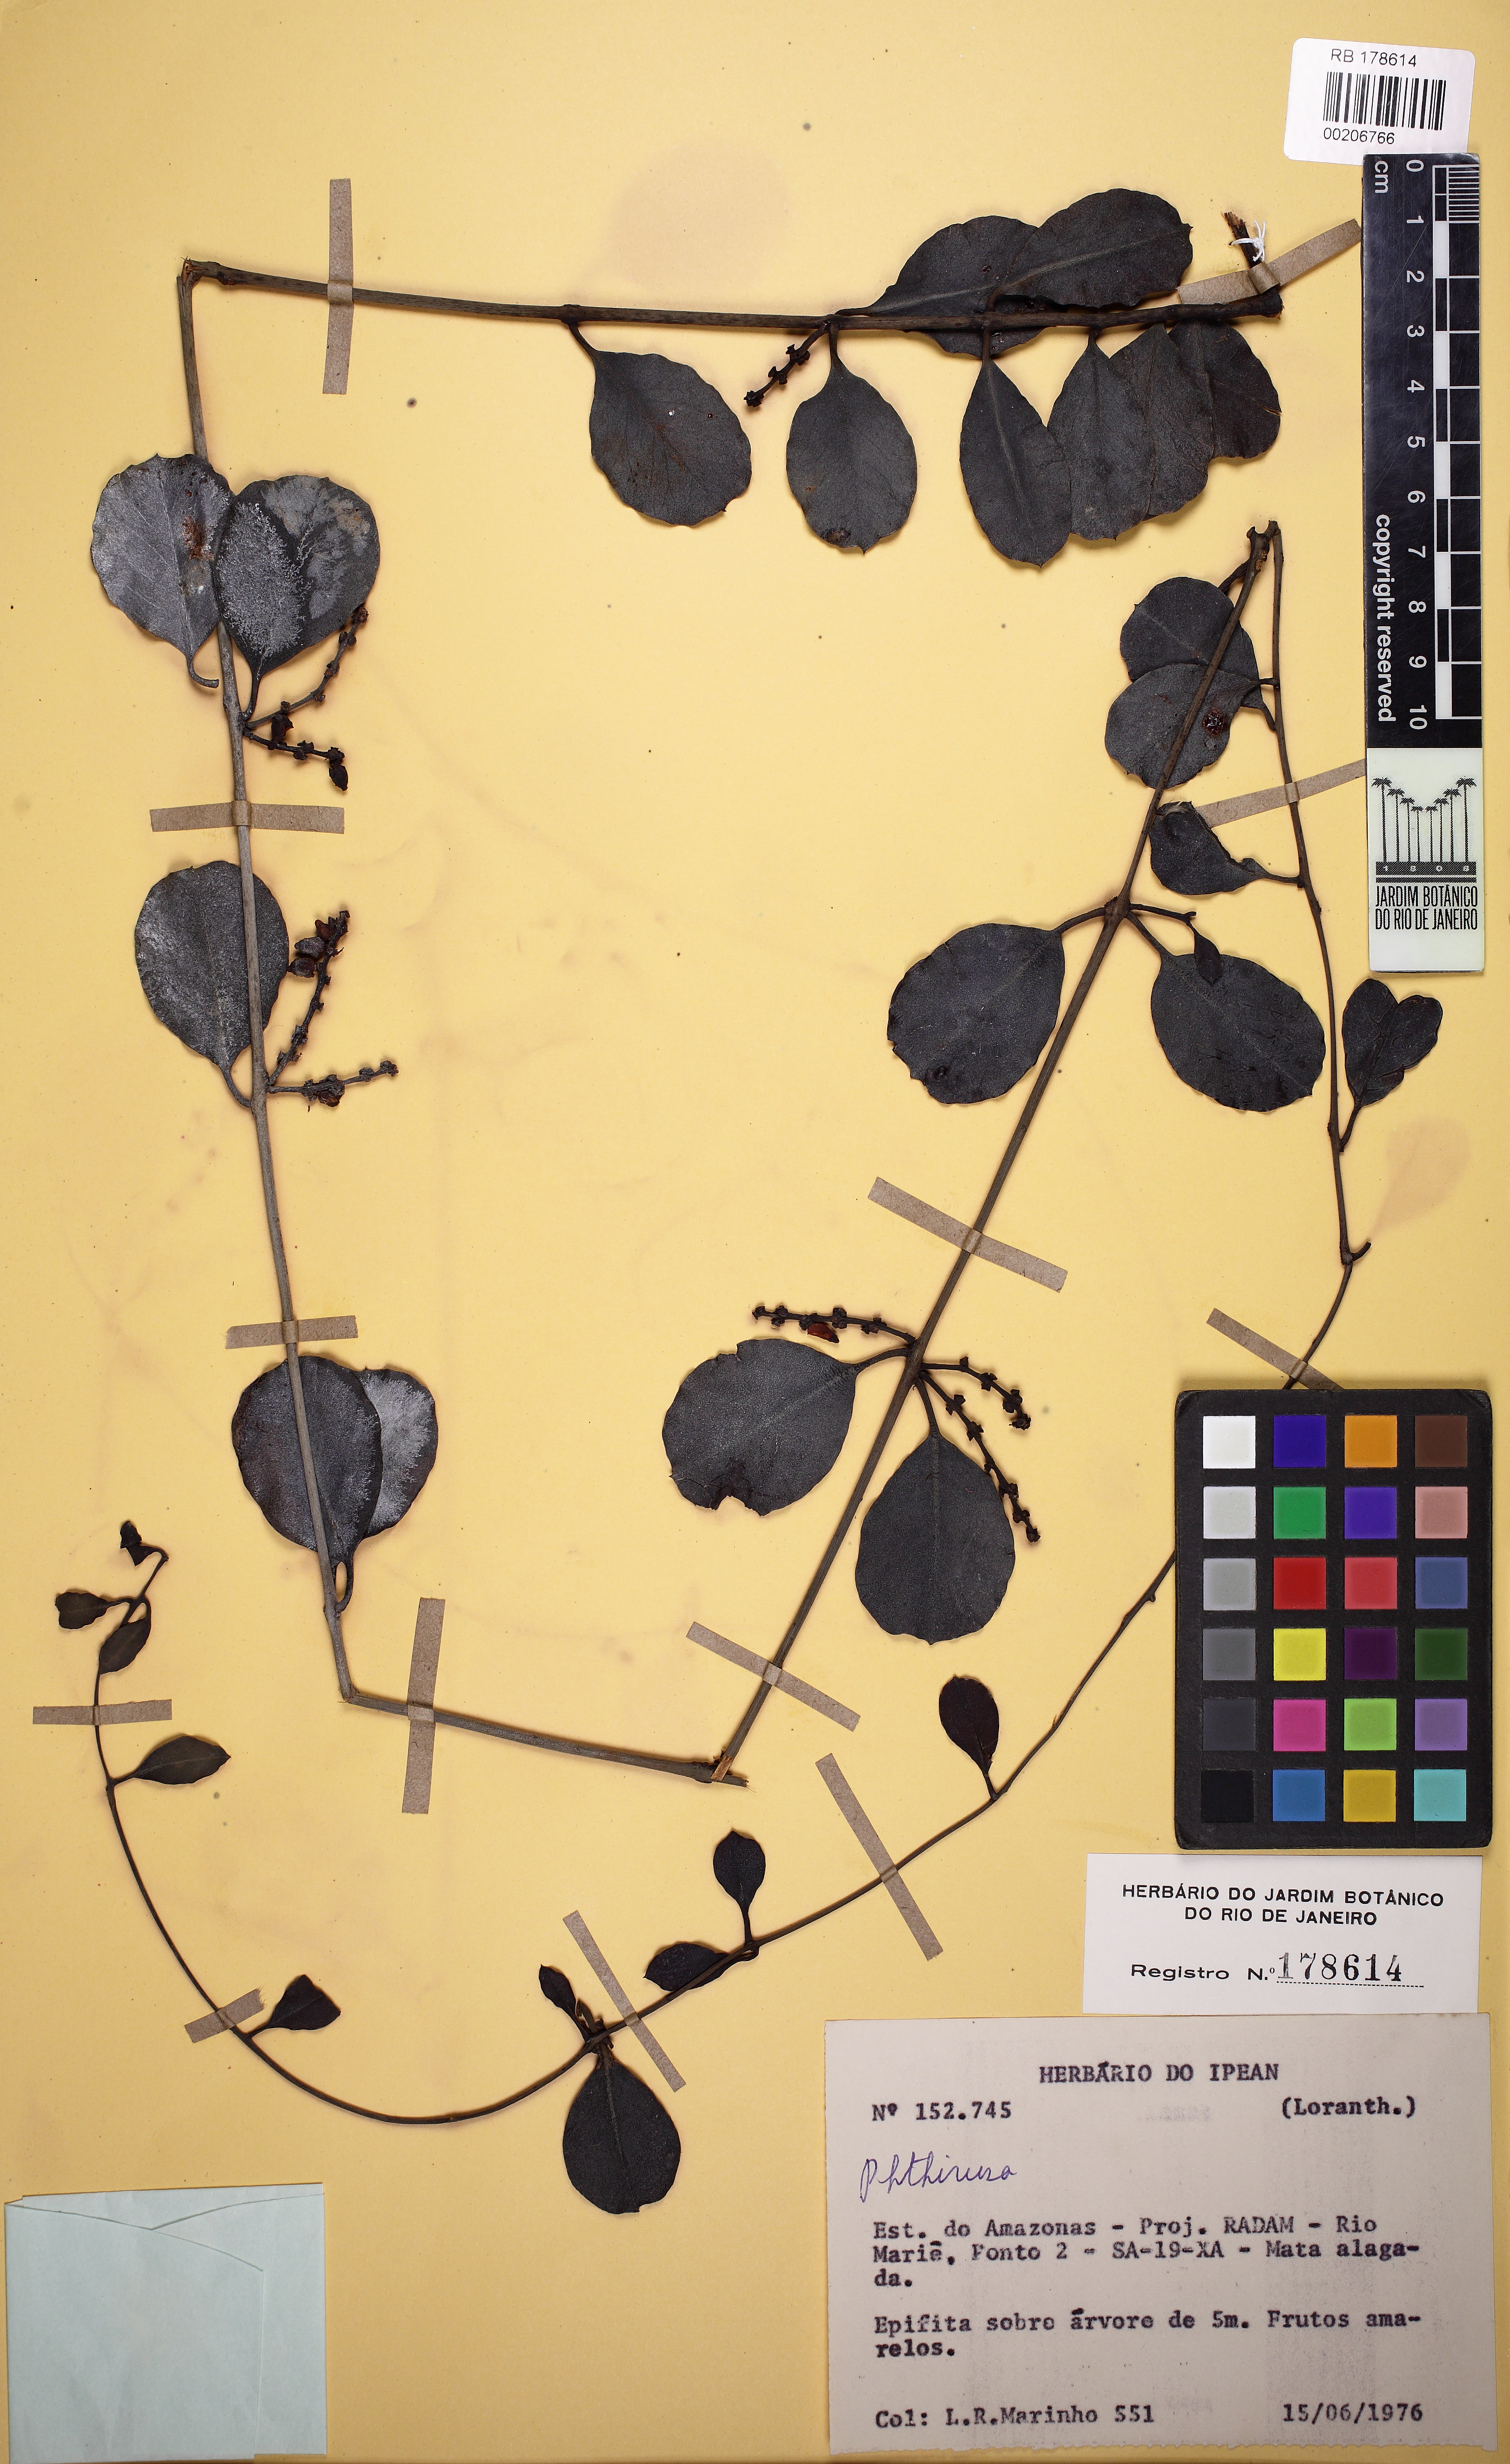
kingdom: Plantae
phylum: Tracheophyta
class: Magnoliopsida
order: Santalales
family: Loranthaceae
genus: Struthanthus
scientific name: Struthanthus
